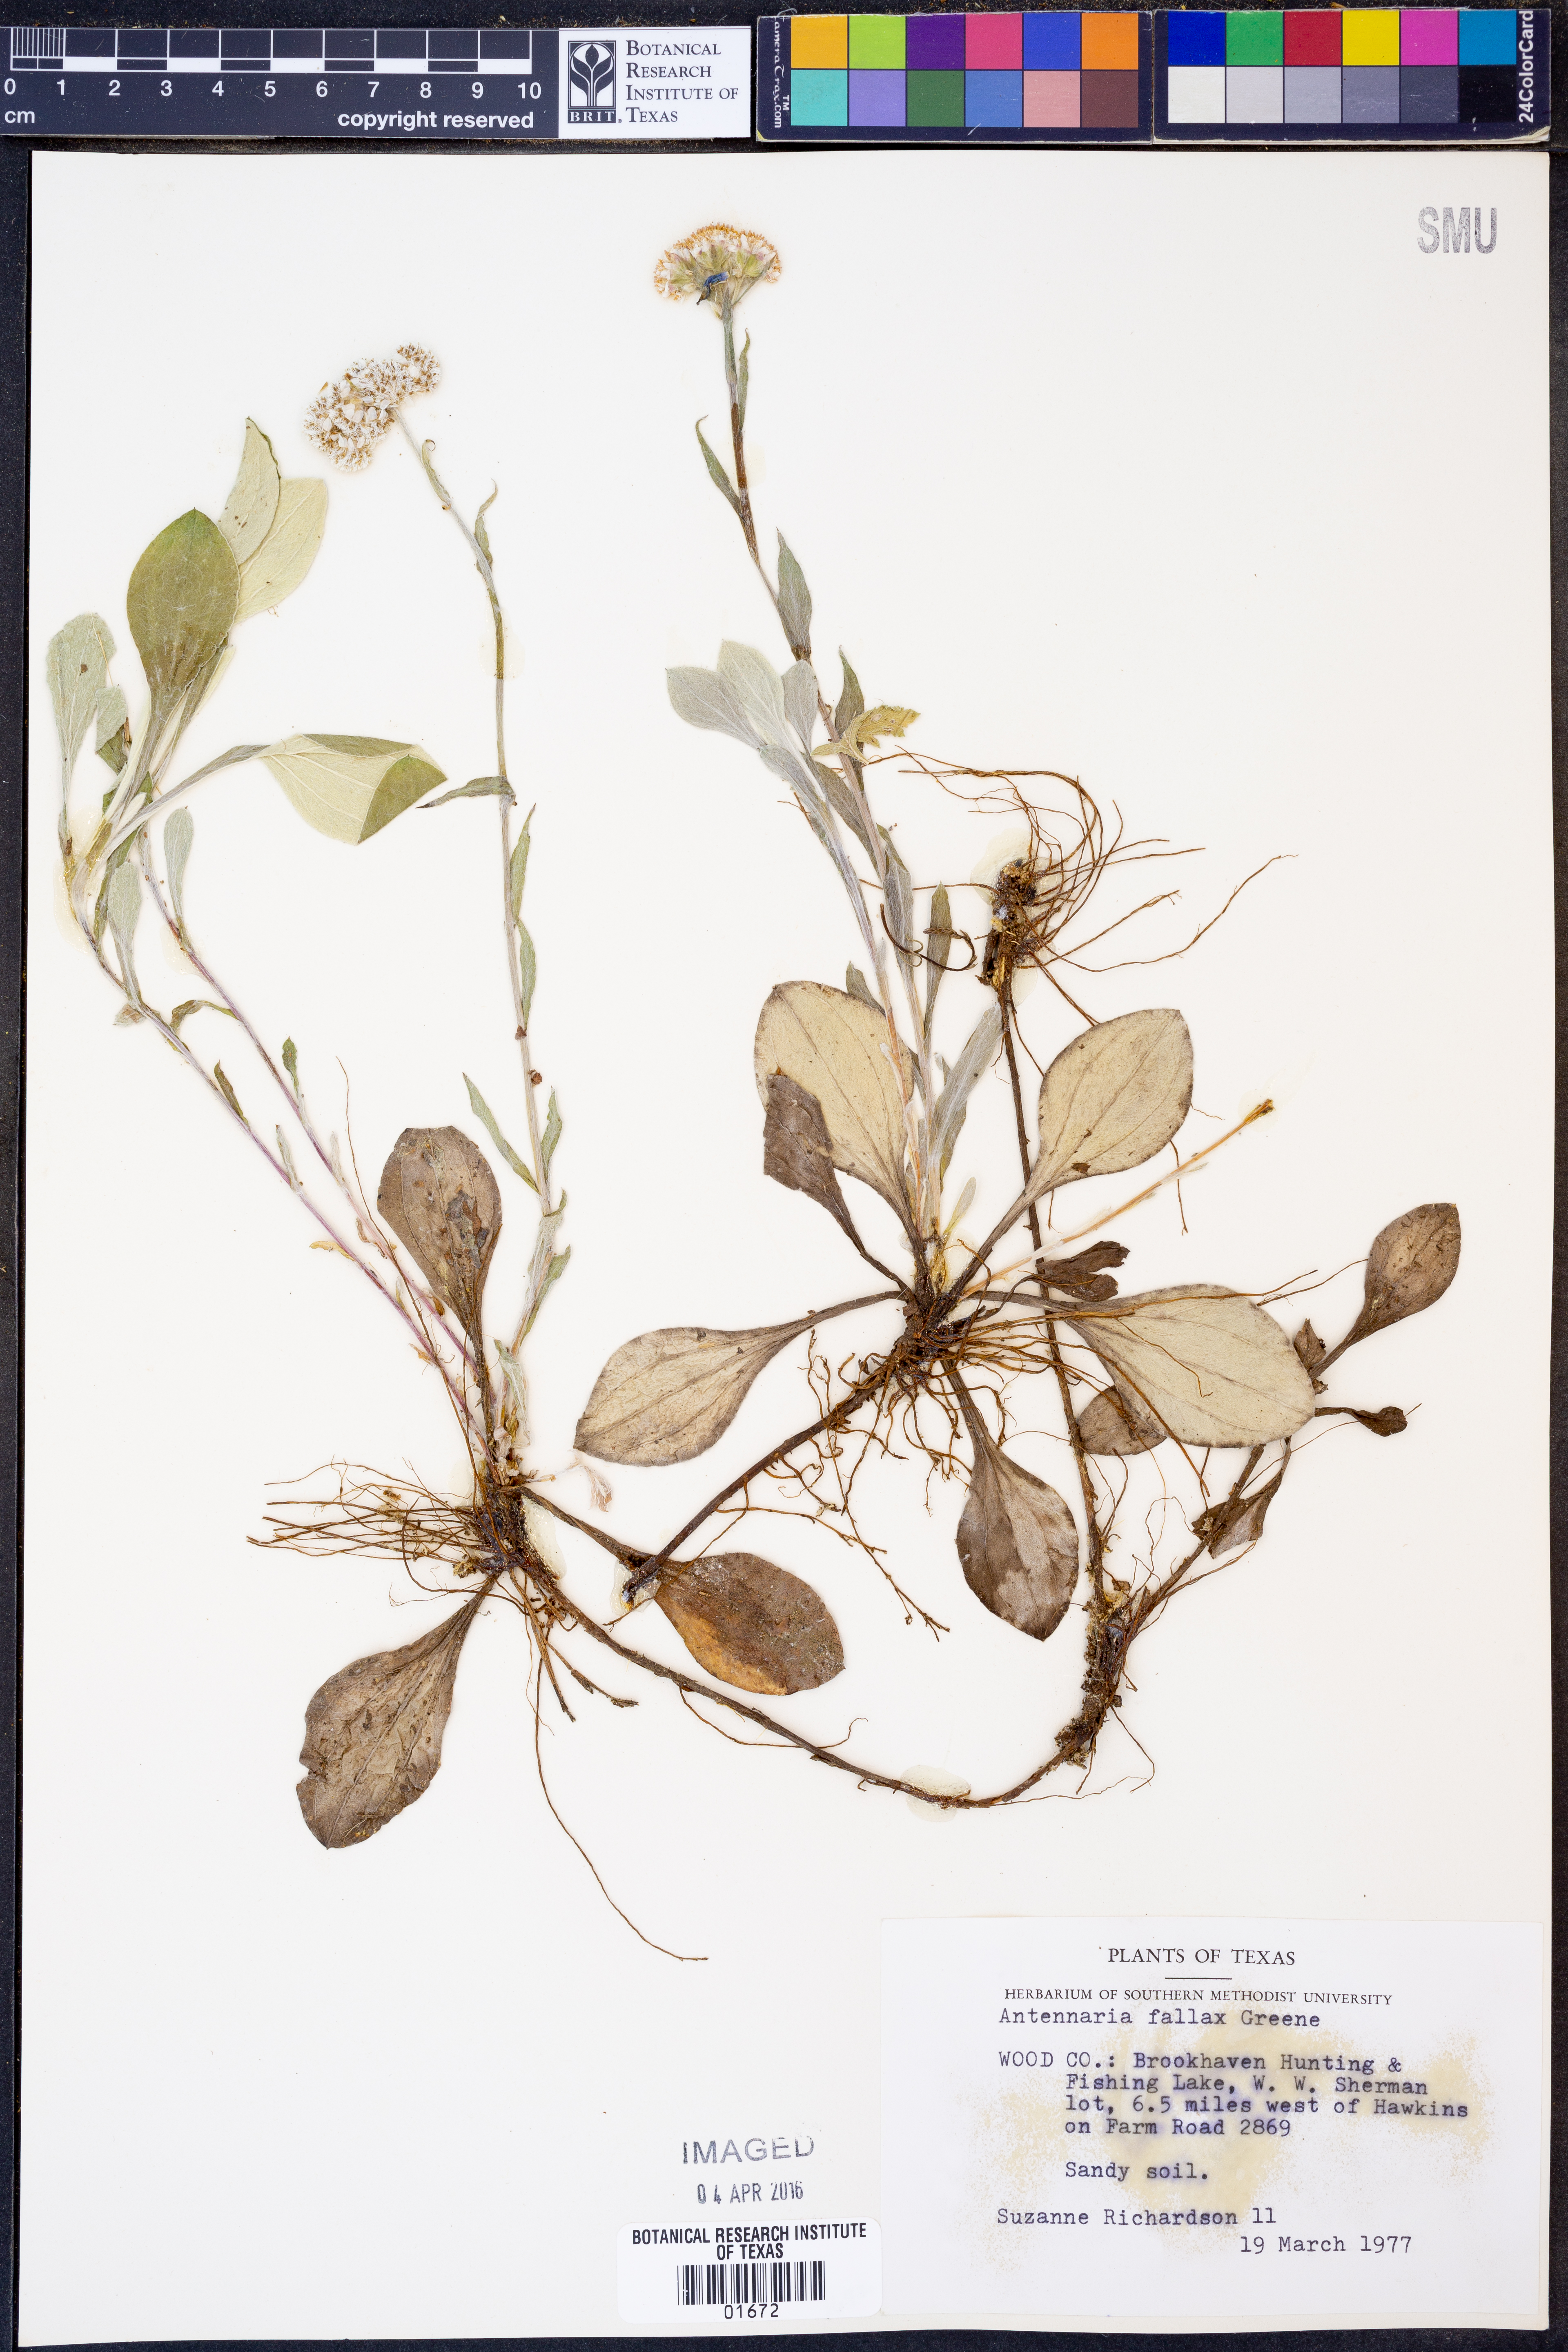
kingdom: Plantae
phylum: Tracheophyta
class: Magnoliopsida
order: Asterales
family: Asteraceae
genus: Antennaria
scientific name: Antennaria parlinii
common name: Parlin's pussytoes
